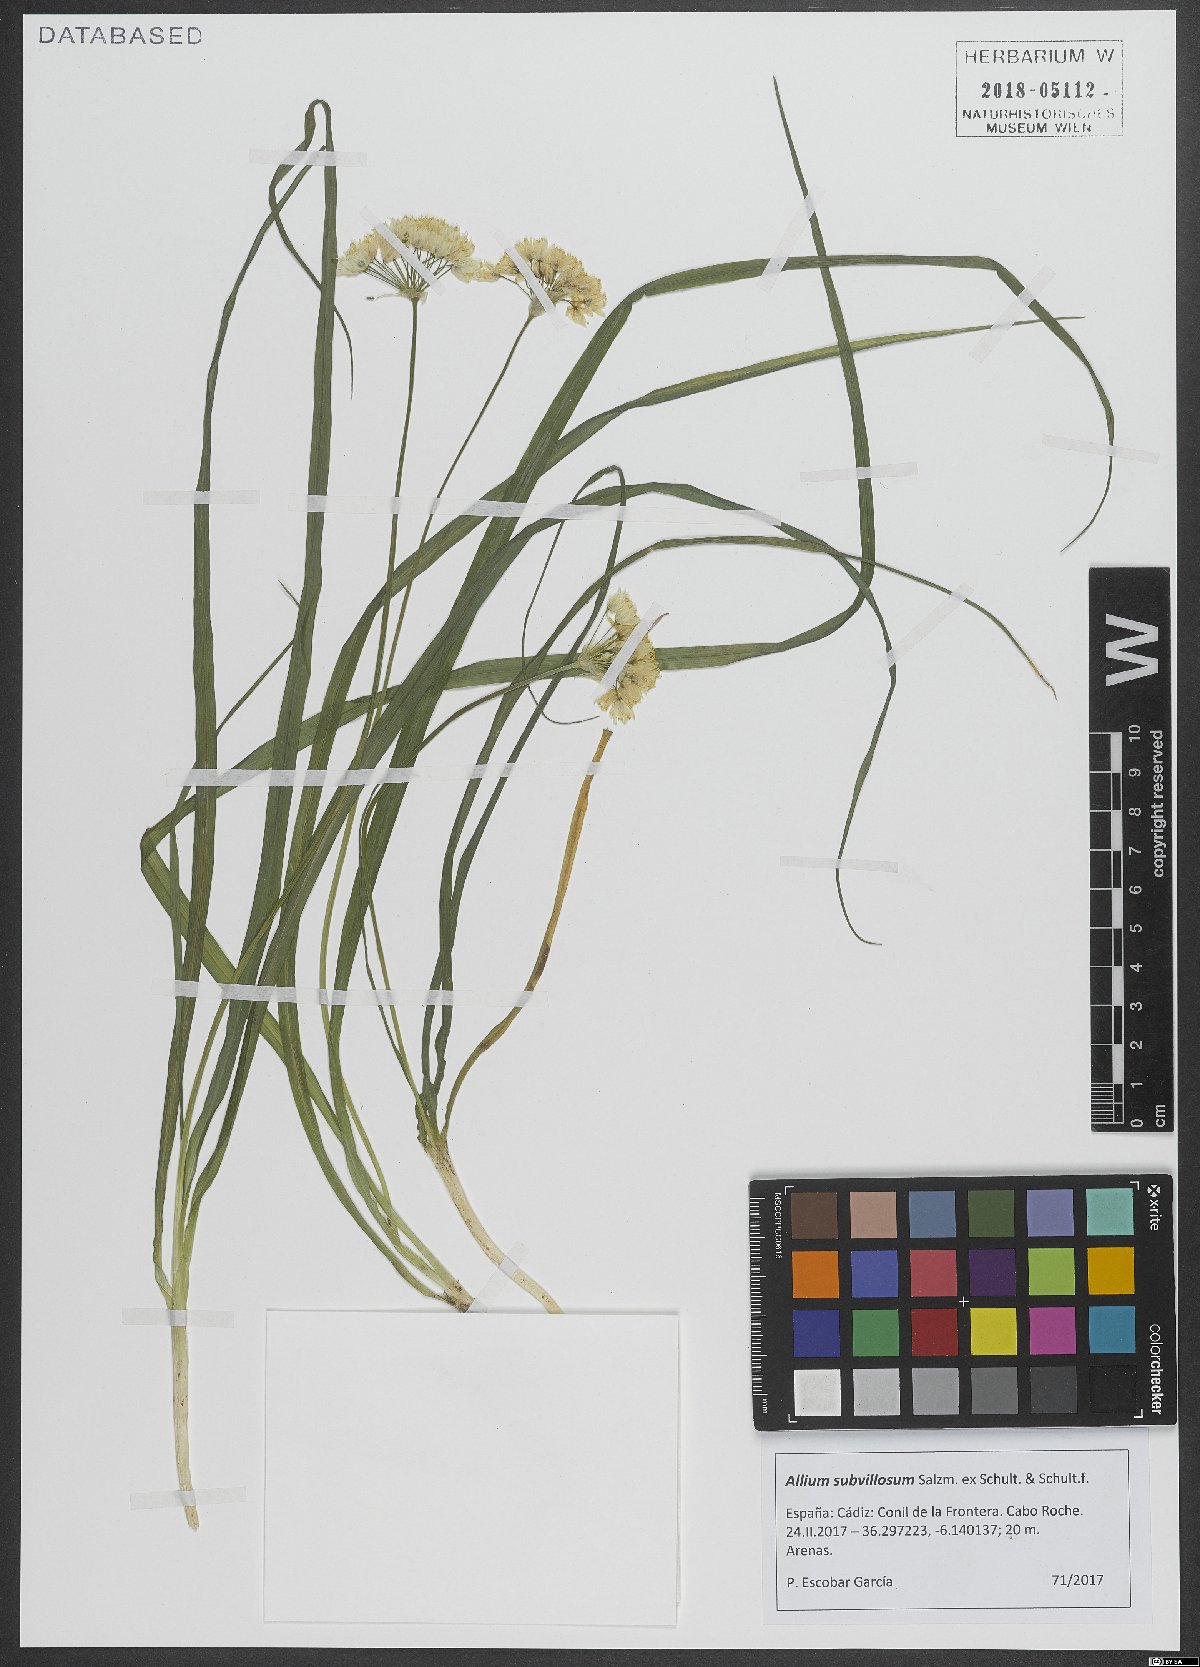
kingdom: Plantae
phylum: Tracheophyta
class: Liliopsida
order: Asparagales
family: Amaryllidaceae
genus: Allium
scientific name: Allium subvillosum
